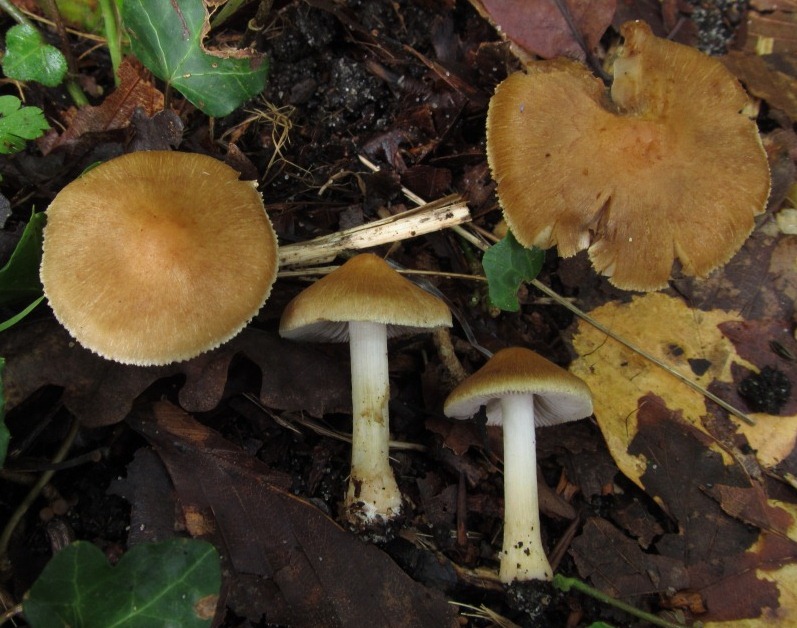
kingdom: Fungi
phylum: Basidiomycota
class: Agaricomycetes
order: Agaricales
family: Inocybaceae
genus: Inosperma
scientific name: Inosperma quietiodor
